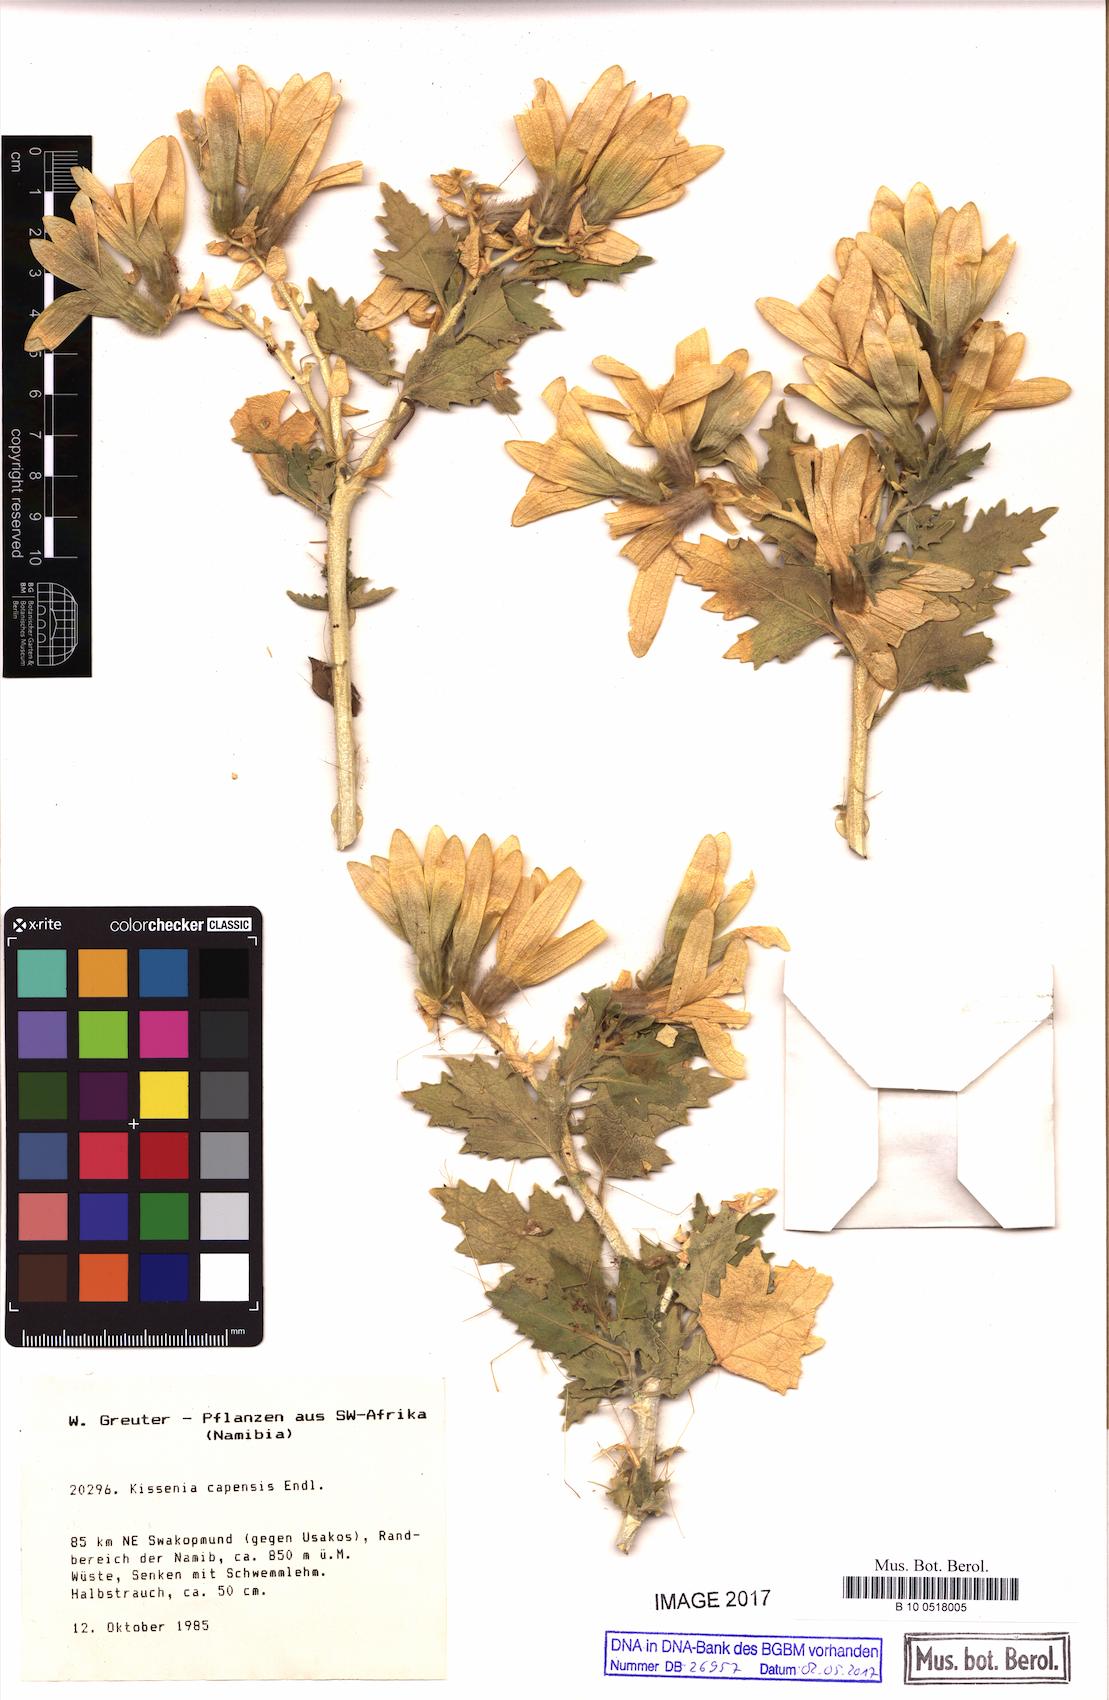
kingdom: Plantae
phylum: Tracheophyta
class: Liliopsida
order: Asparagales
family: Orchidaceae
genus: Paphiopedilum
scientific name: Paphiopedilum barbatum
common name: Bearded paphiopedilum
